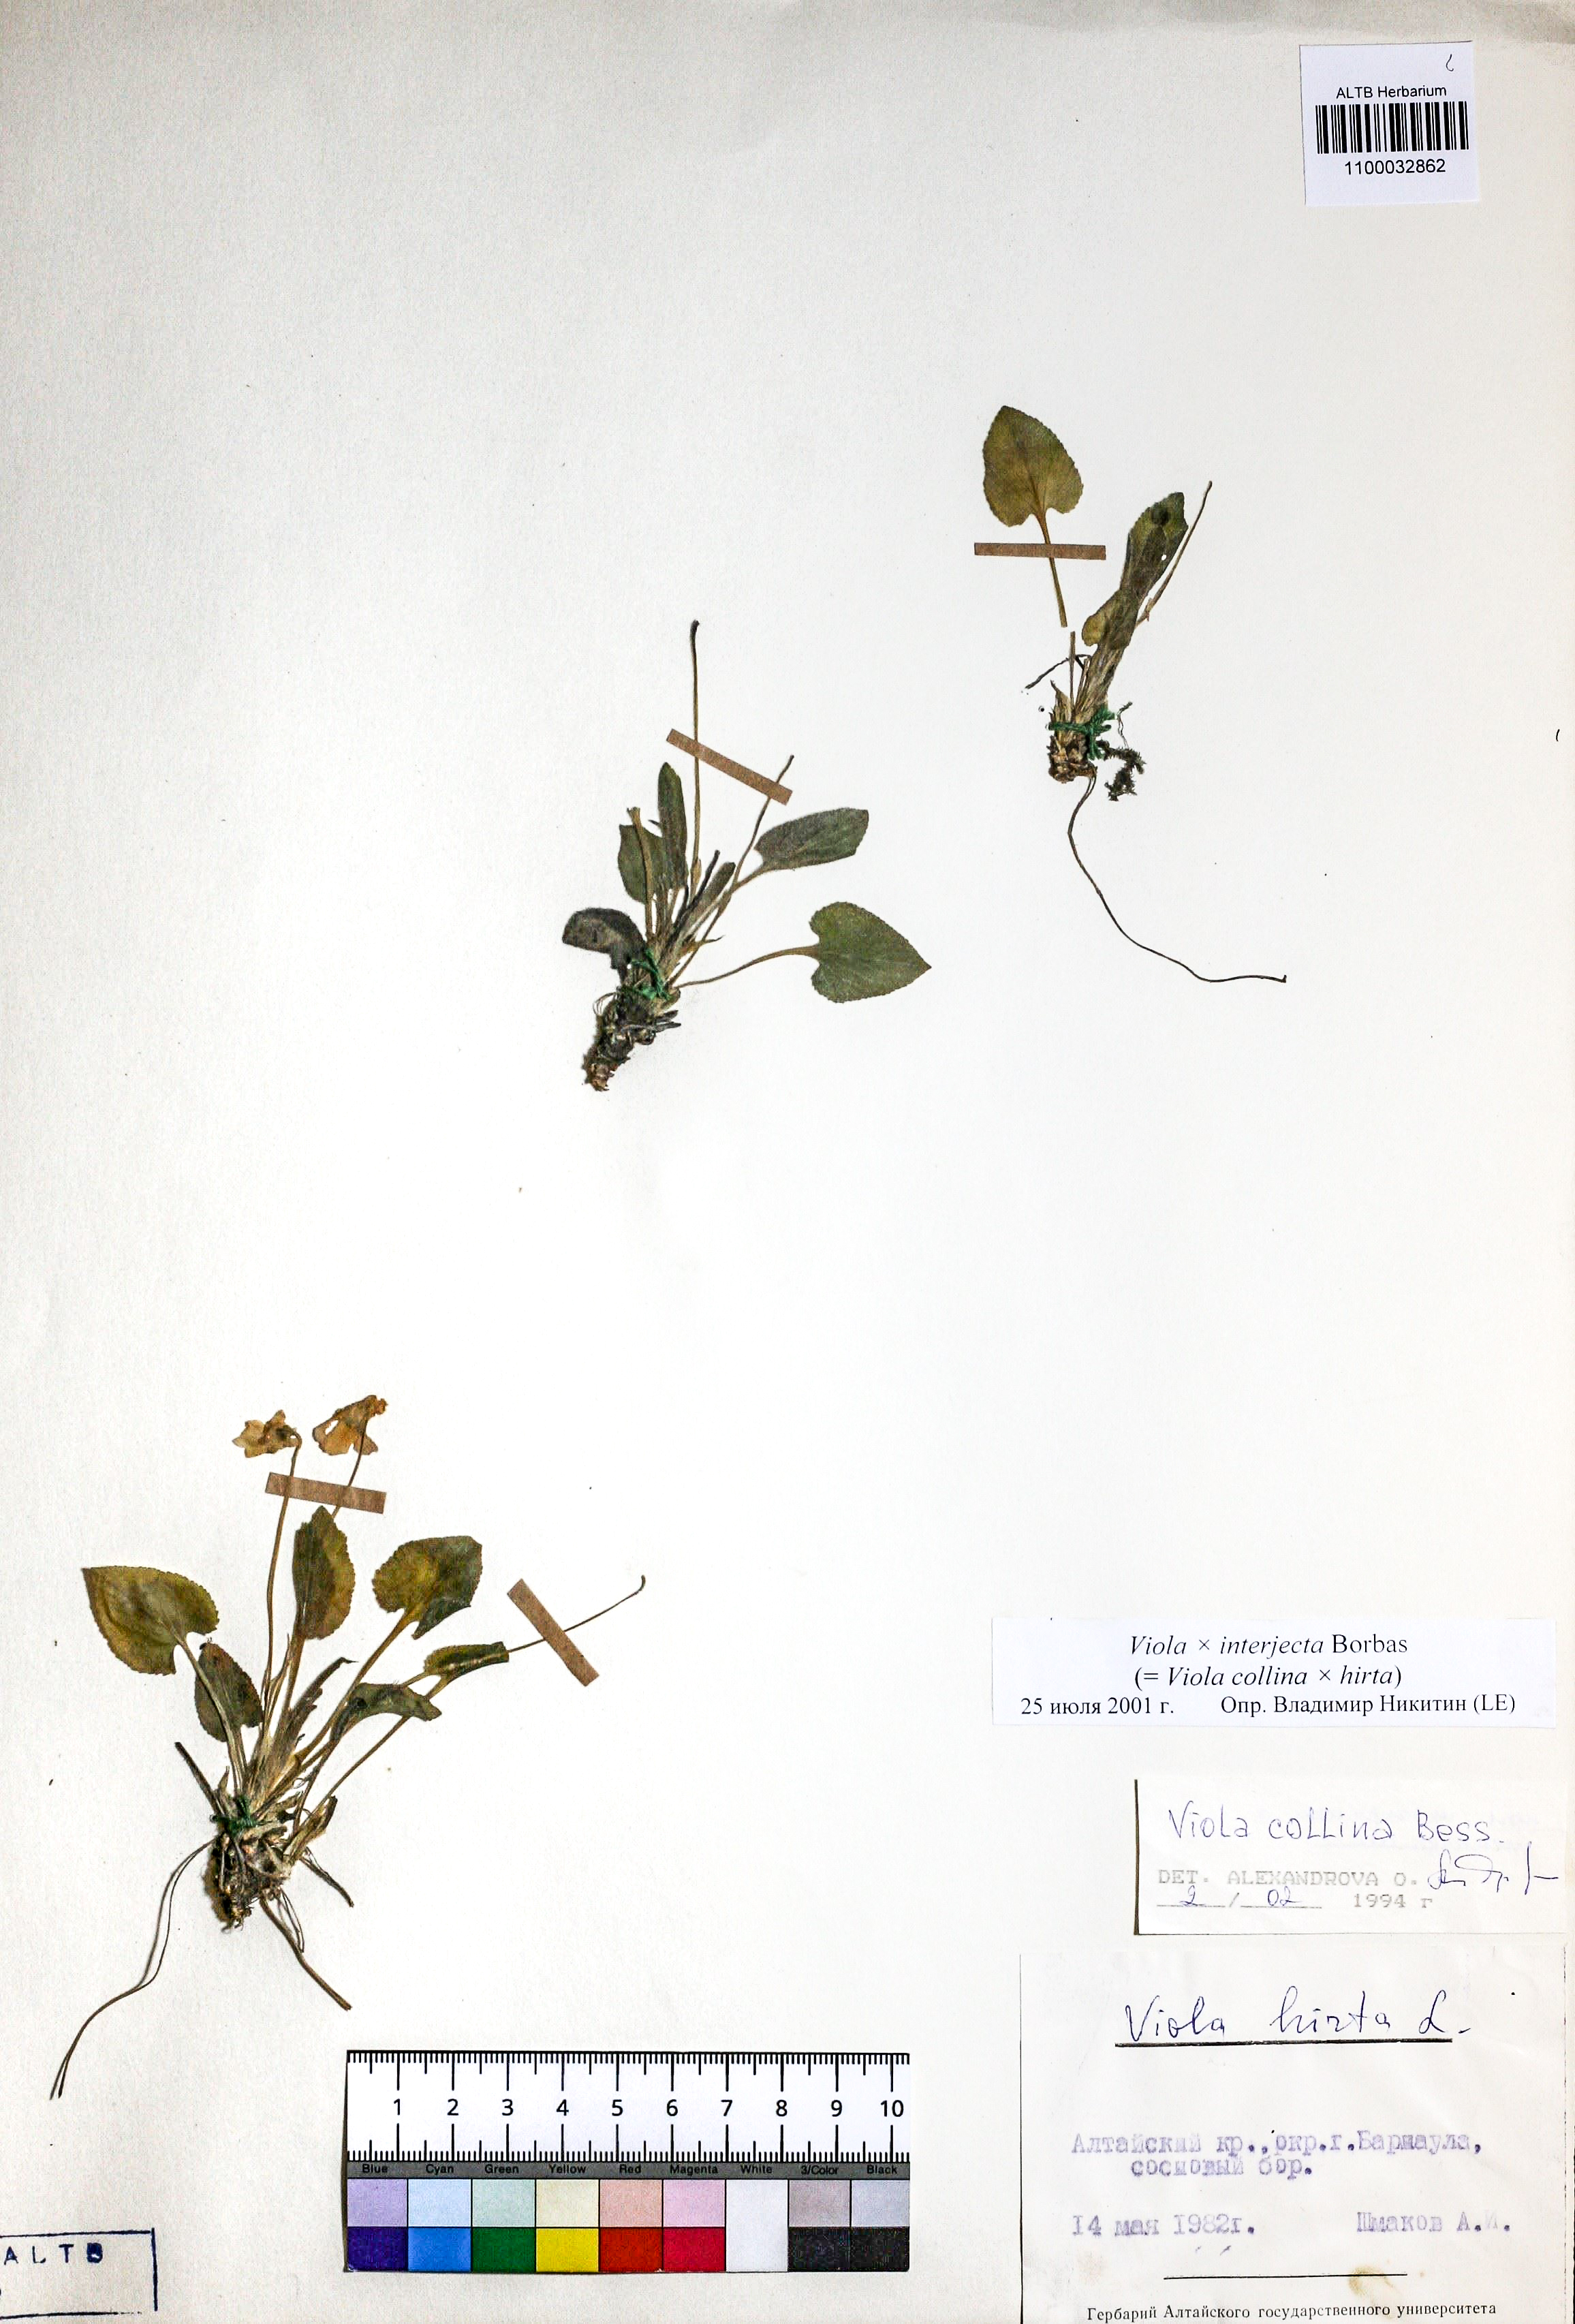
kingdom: Plantae
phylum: Tracheophyta
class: Magnoliopsida
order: Malpighiales
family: Violaceae
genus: Viola
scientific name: Viola interjecta
